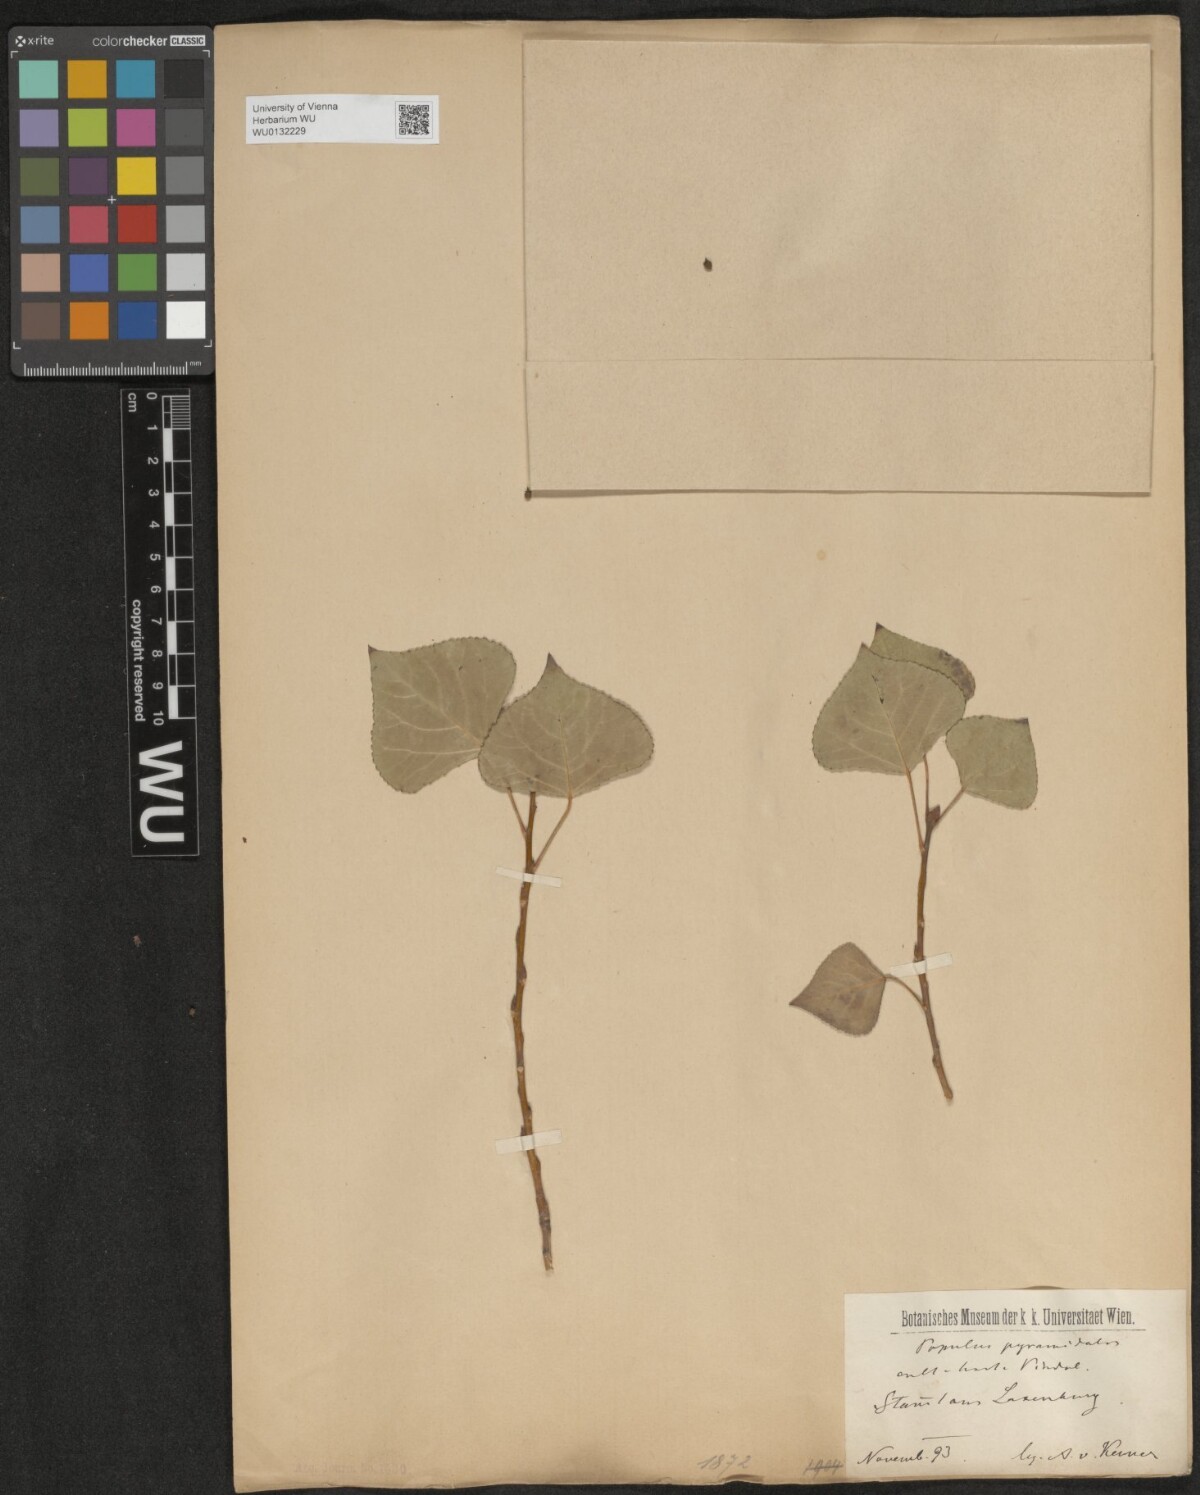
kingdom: Plantae
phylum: Tracheophyta
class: Magnoliopsida
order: Malpighiales
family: Salicaceae
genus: Populus
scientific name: Populus nigra
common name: Black poplar
